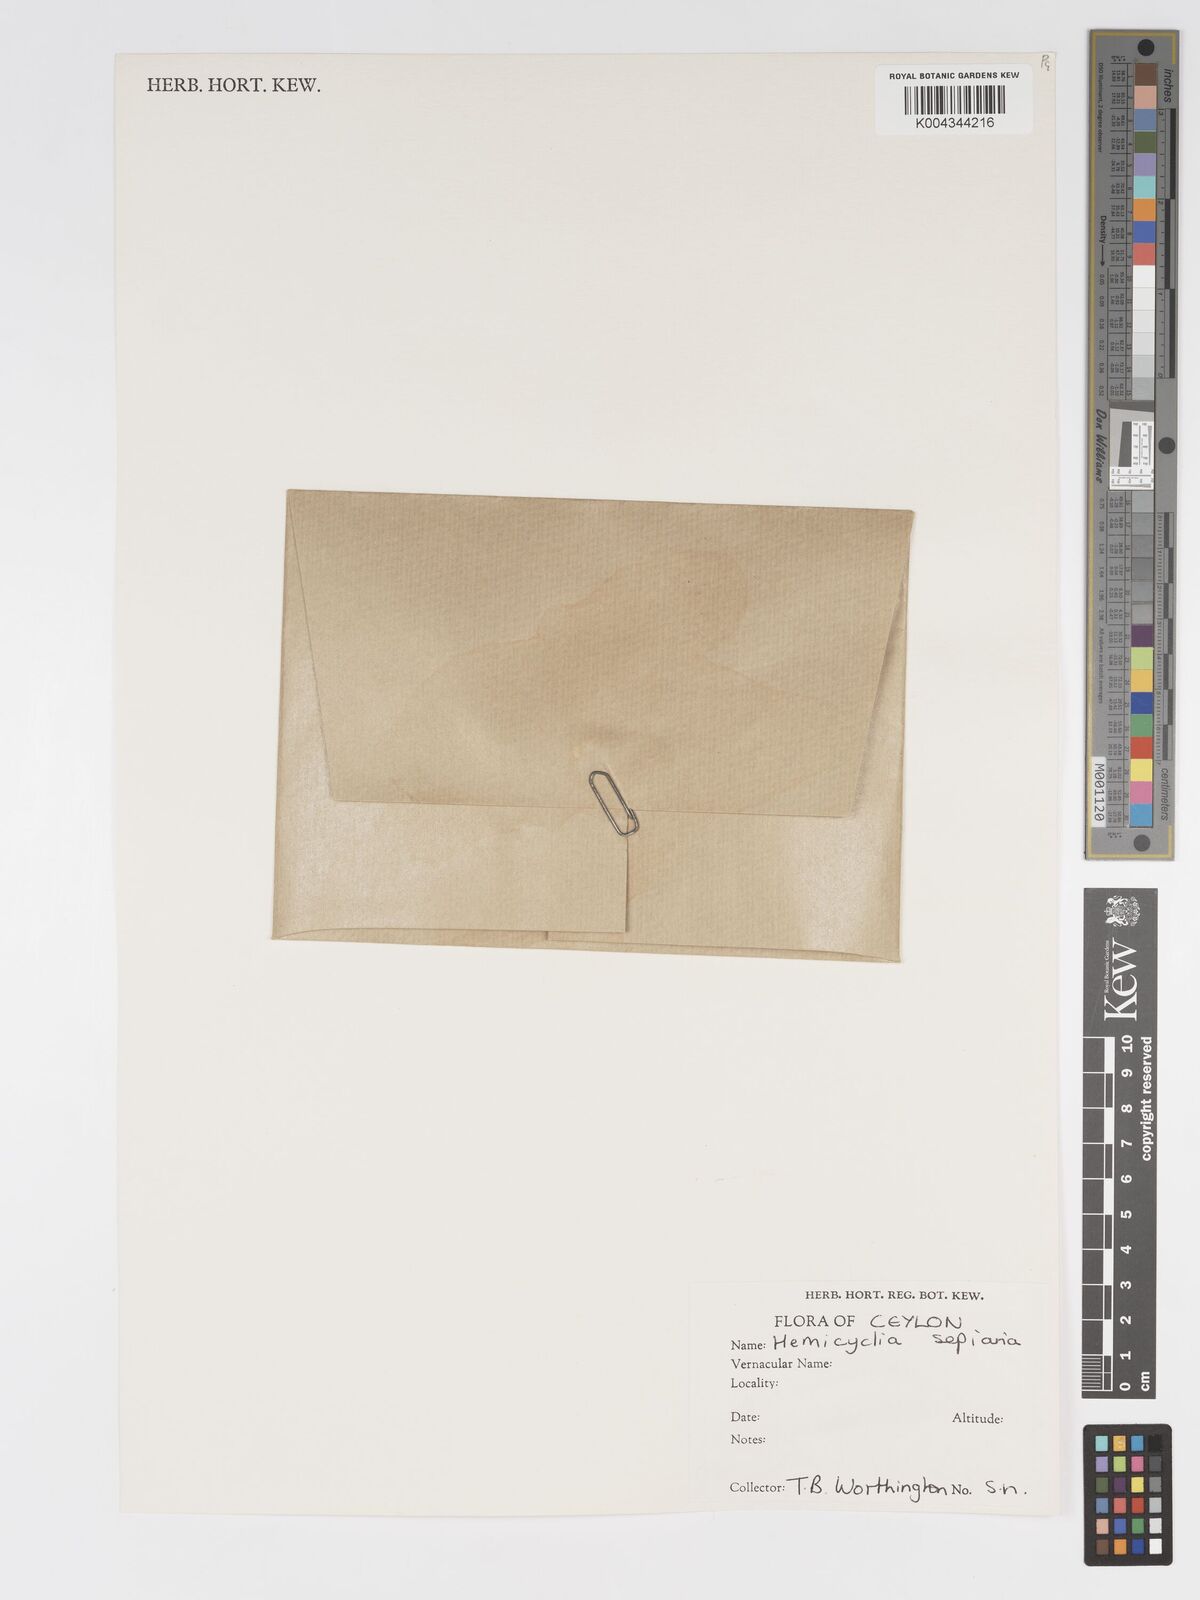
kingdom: Plantae
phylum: Tracheophyta
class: Magnoliopsida
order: Malpighiales
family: Putranjivaceae
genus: Drypetes
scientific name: Drypetes sepiaria
